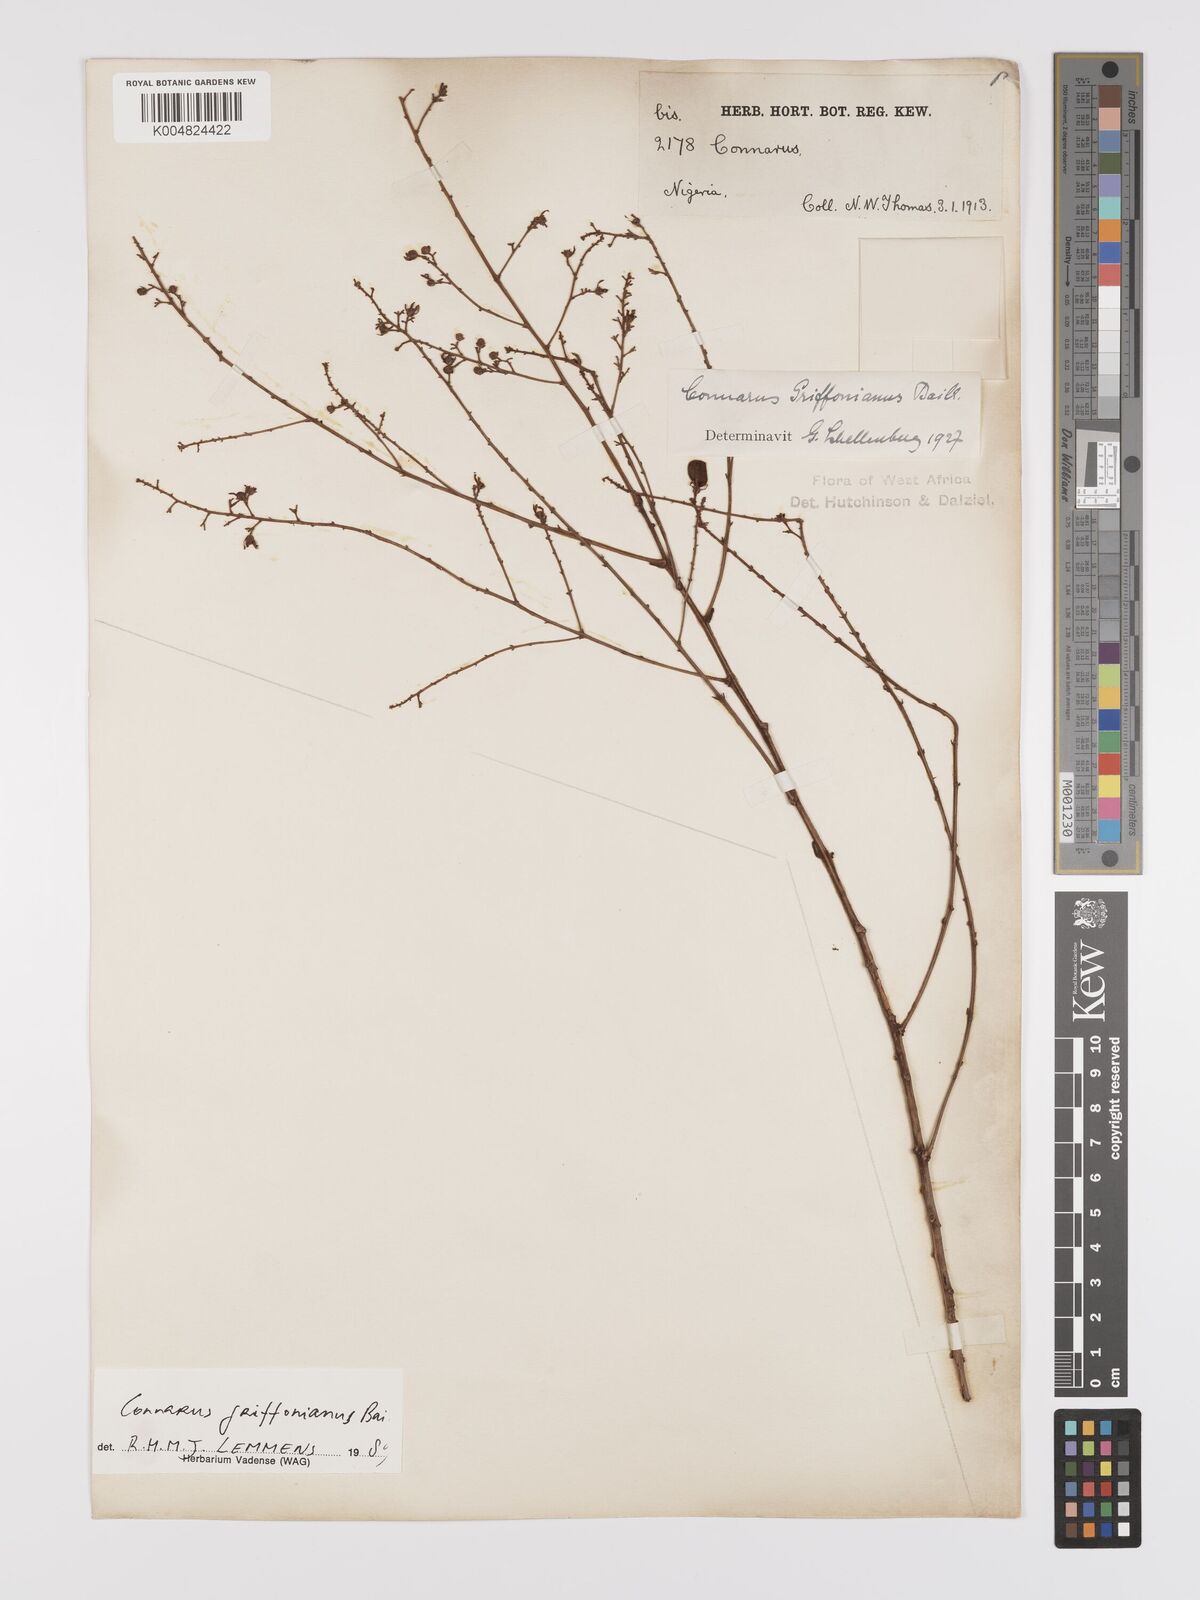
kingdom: Plantae
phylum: Tracheophyta
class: Magnoliopsida
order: Oxalidales
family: Connaraceae
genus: Connarus
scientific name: Connarus griffonianus
